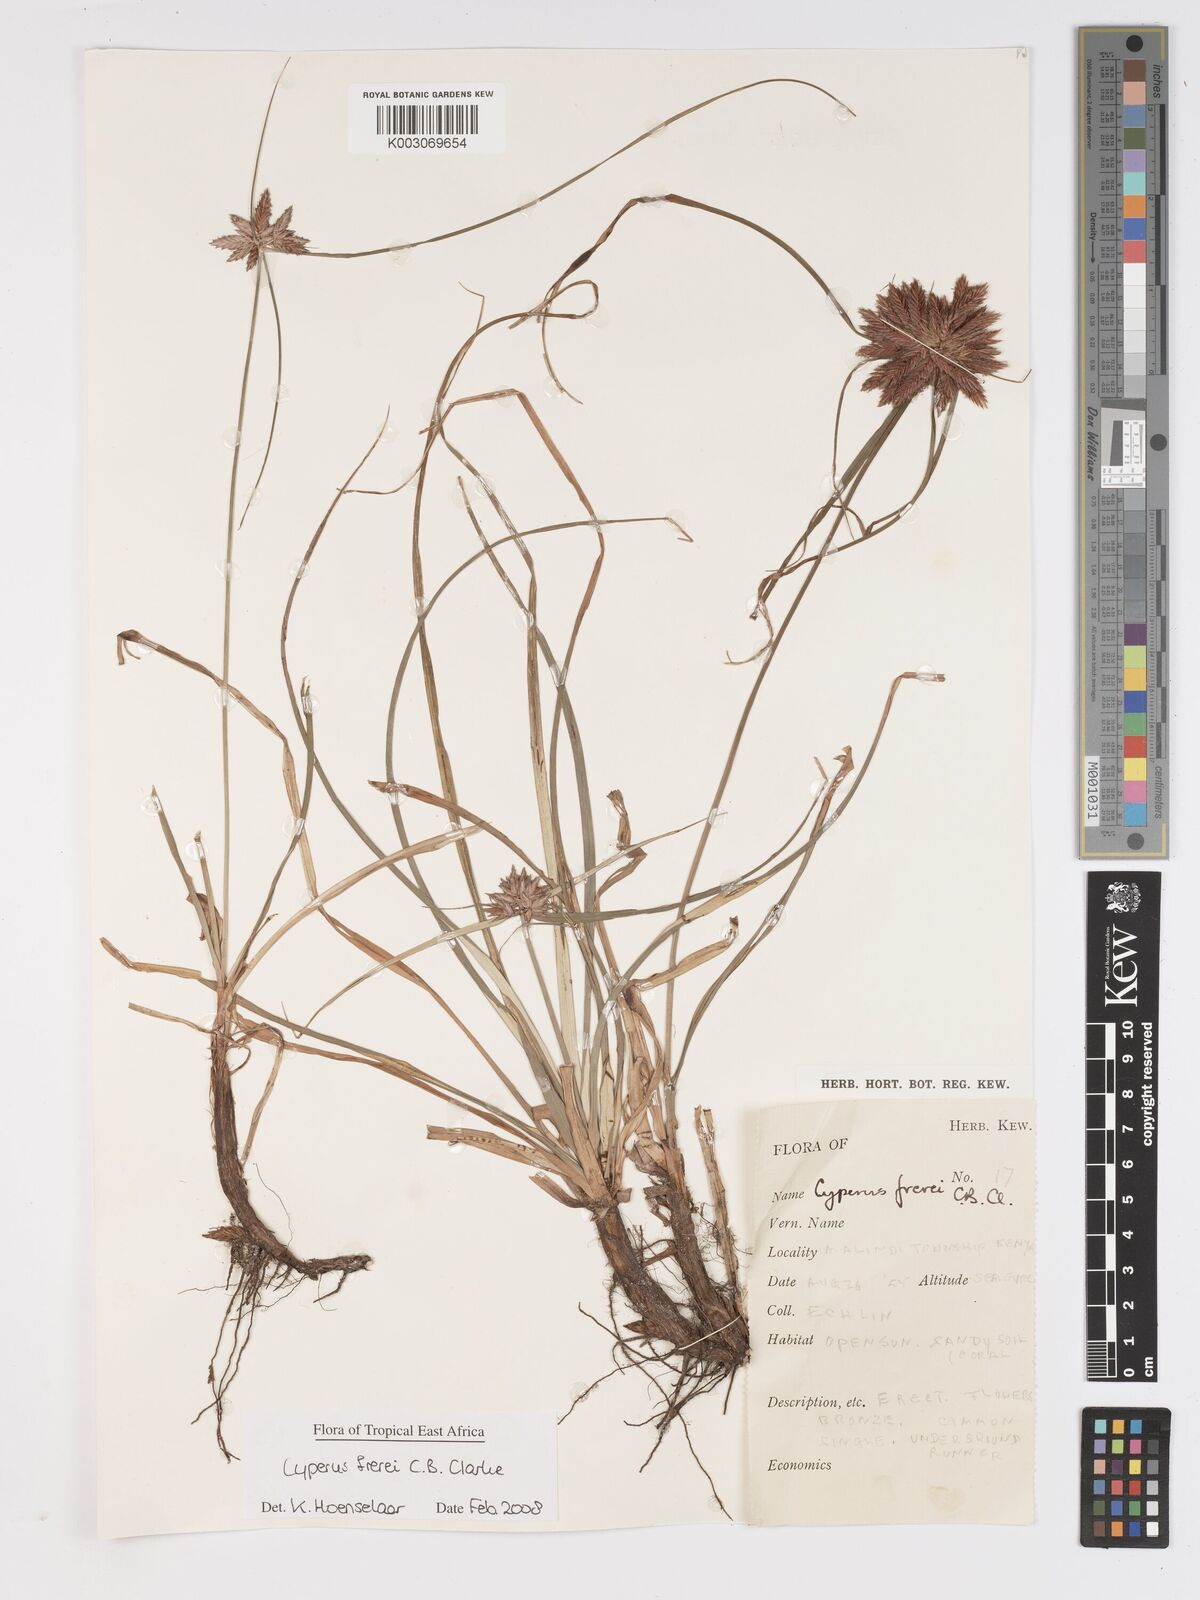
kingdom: Plantae
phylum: Tracheophyta
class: Liliopsida
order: Poales
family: Cyperaceae
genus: Cyperus
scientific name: Cyperus crassipes
